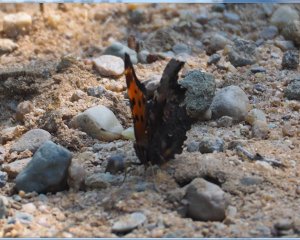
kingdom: Animalia
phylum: Arthropoda
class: Insecta
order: Lepidoptera
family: Nymphalidae
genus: Polygonia
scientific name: Polygonia faunus
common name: Green Comma
